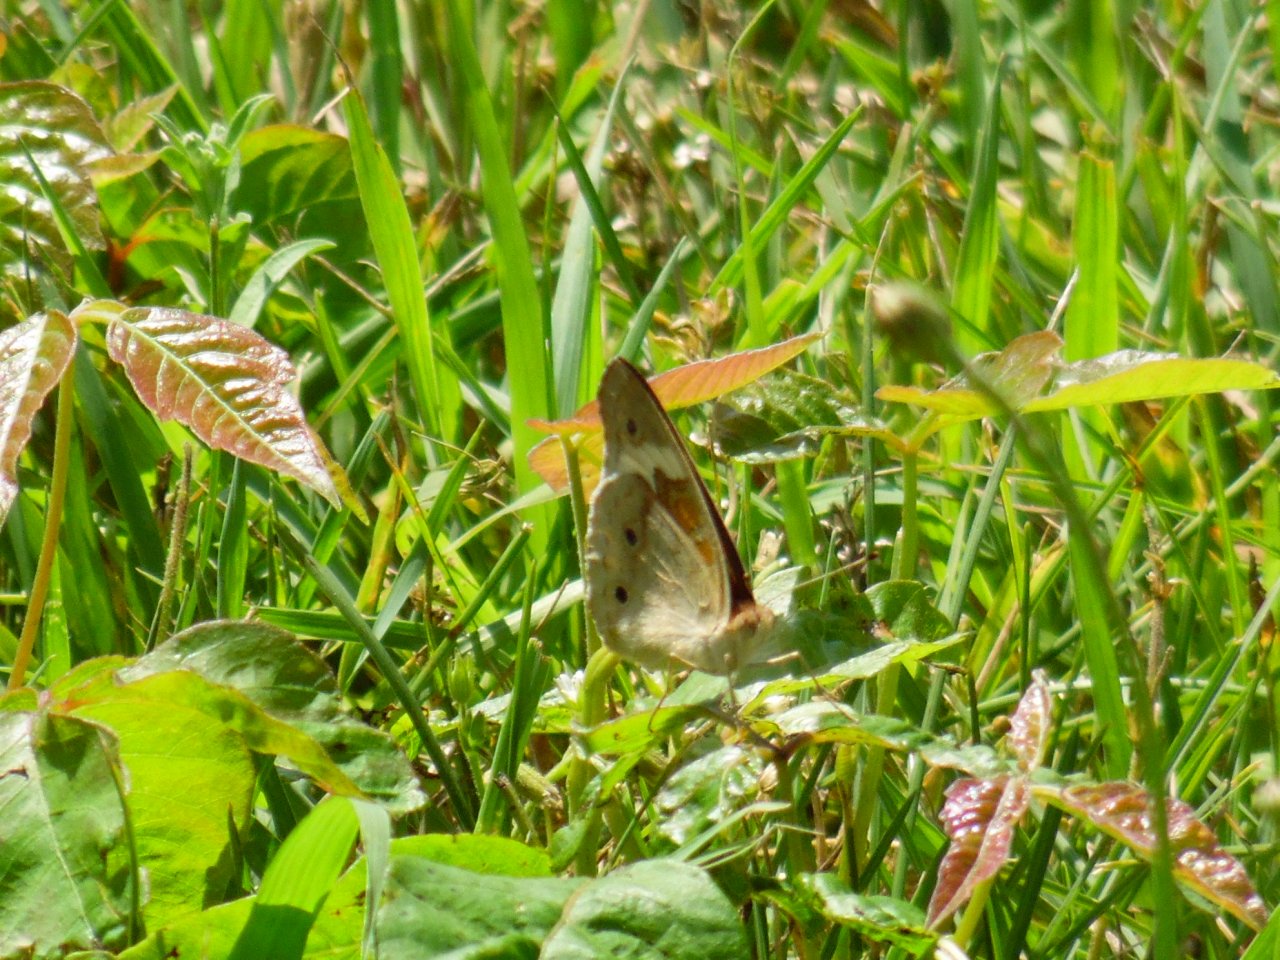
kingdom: Animalia
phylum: Arthropoda
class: Insecta
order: Lepidoptera
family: Nymphalidae
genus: Junonia
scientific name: Junonia coenia
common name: Common Buckeye
